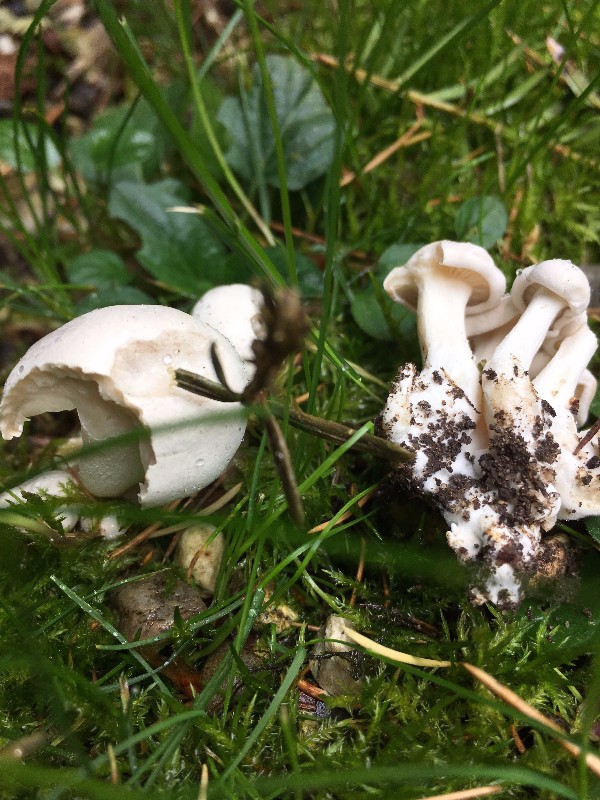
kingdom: Fungi
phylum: Basidiomycota
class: Agaricomycetes
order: Agaricales
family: Tricholomataceae
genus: Leucocybe
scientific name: Leucocybe connata
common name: knippe-tragthat
